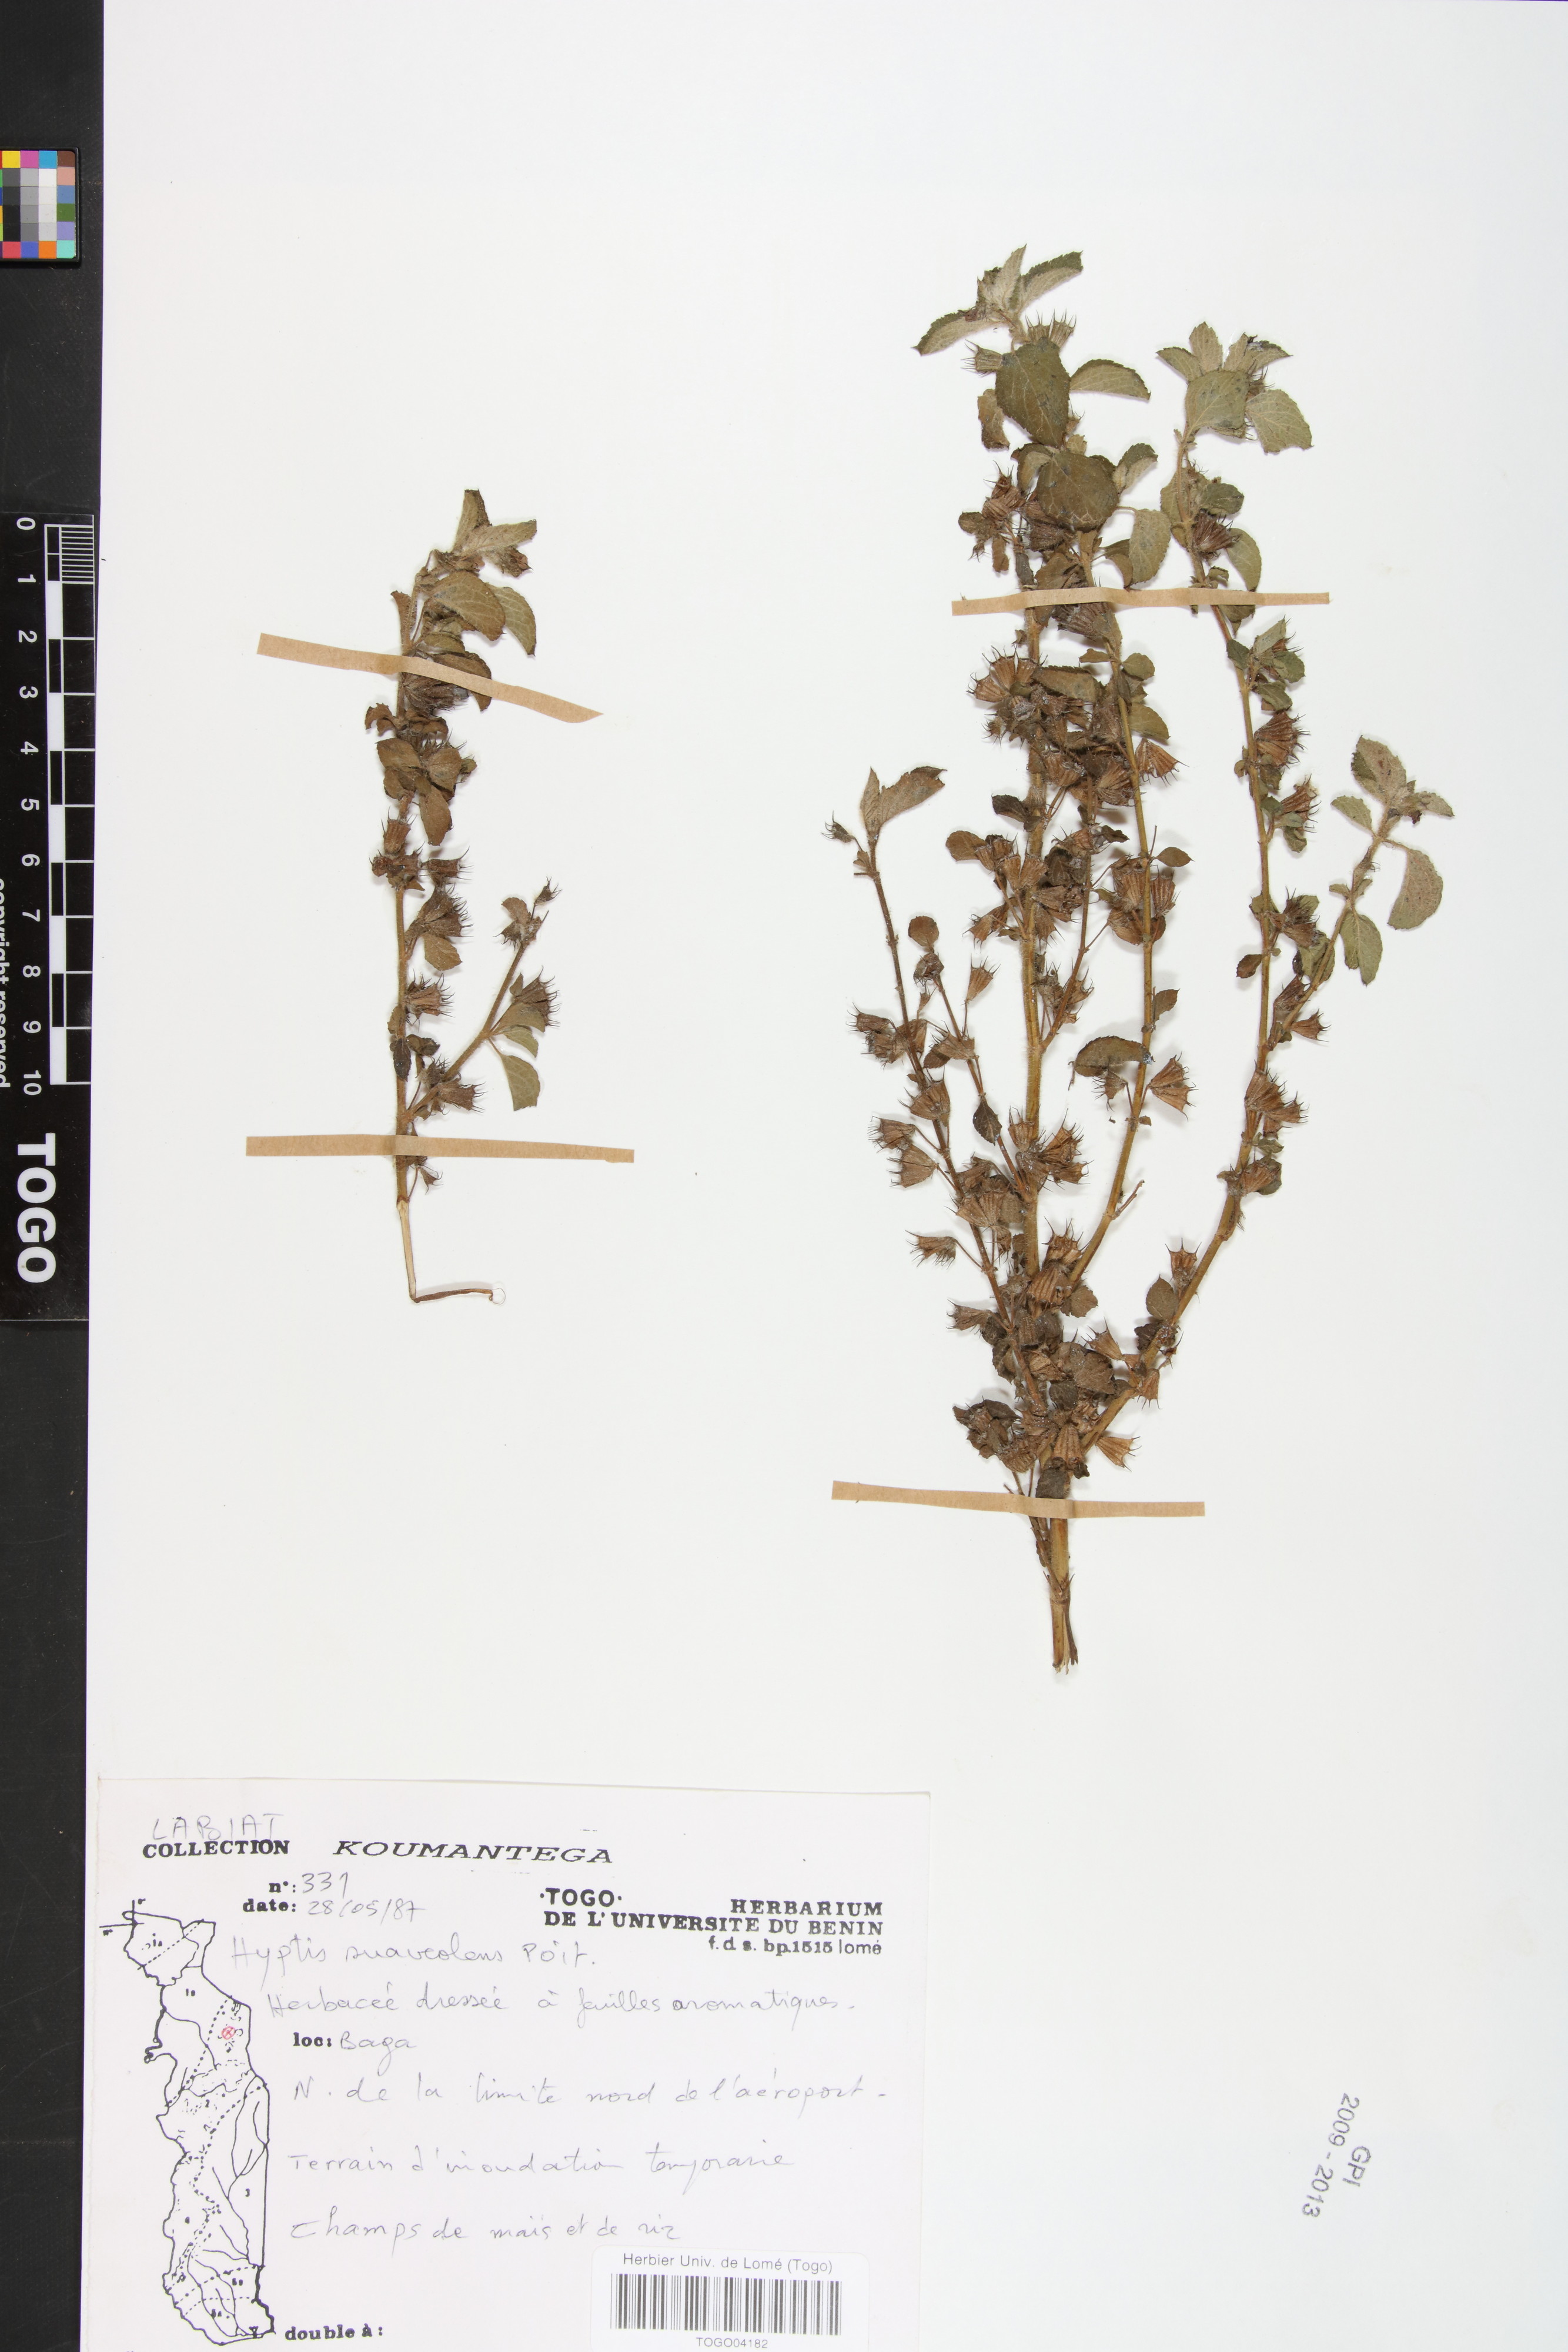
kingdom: Plantae
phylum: Tracheophyta
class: Magnoliopsida
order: Lamiales
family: Lamiaceae
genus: Mesosphaerum
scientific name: Mesosphaerum suaveolens
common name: Pignut
